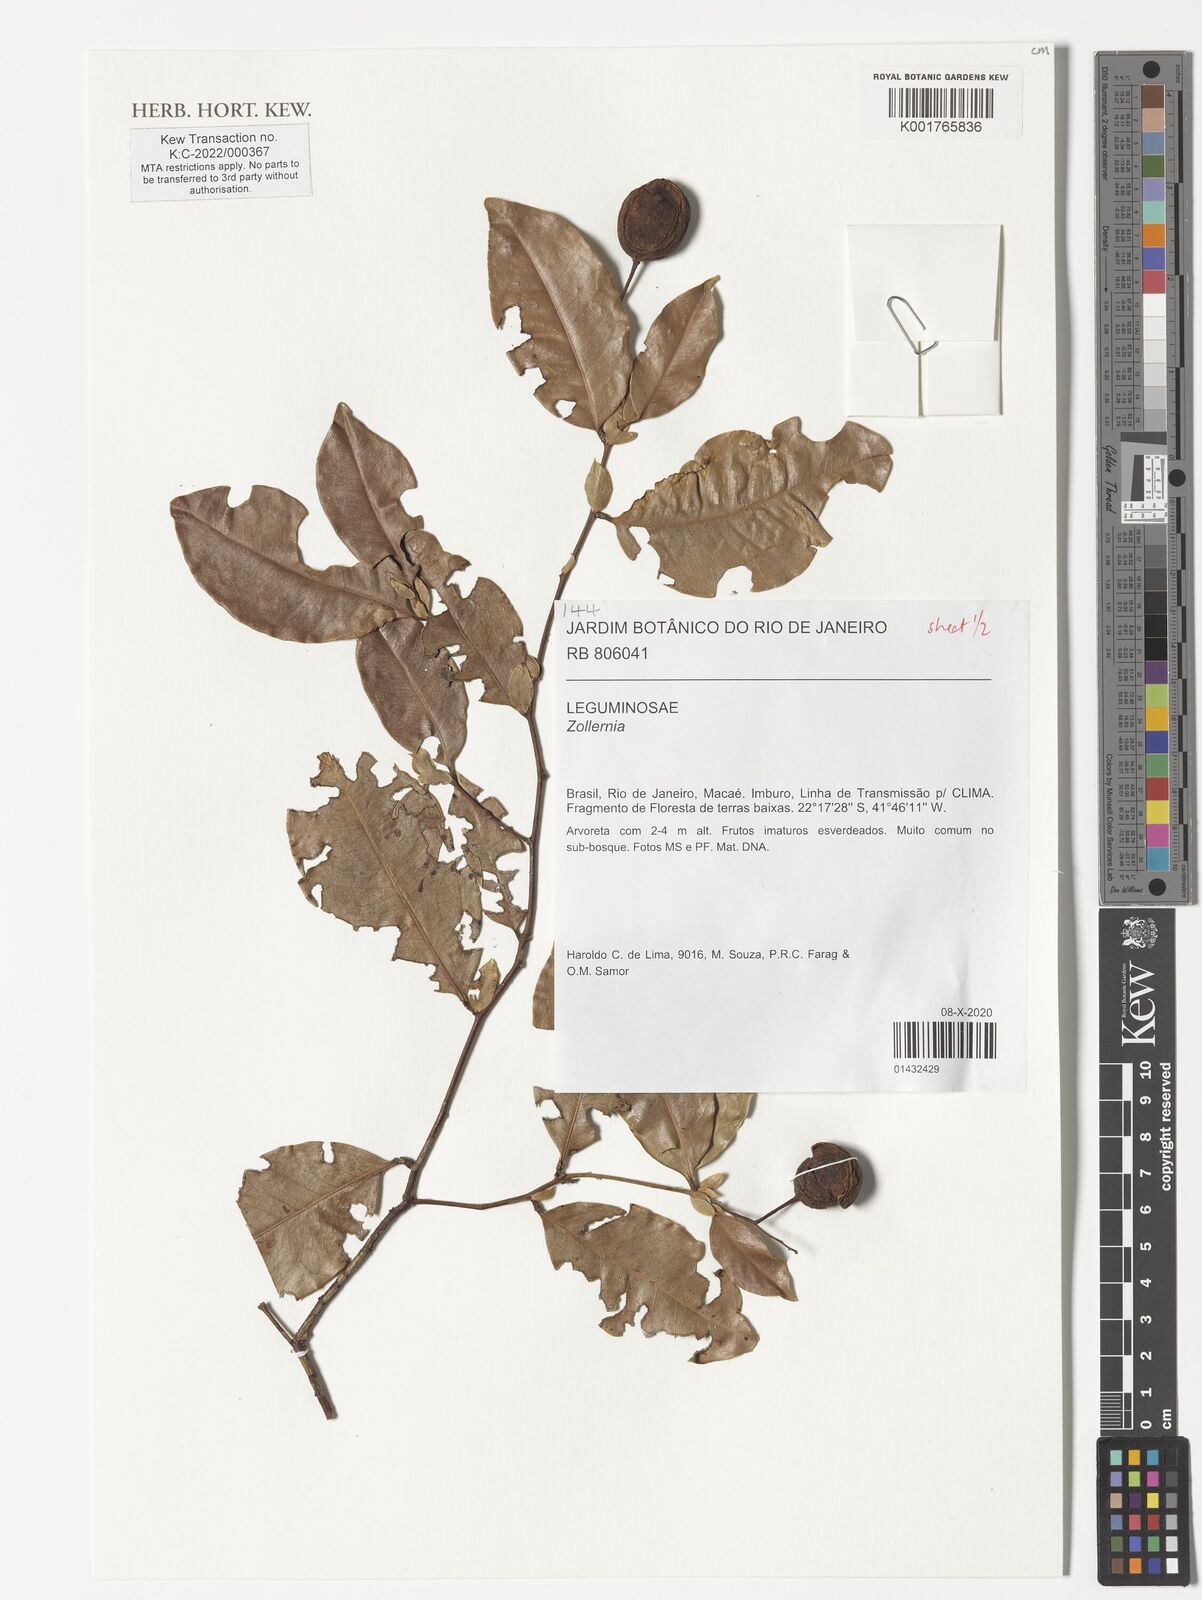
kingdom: Plantae
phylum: Tracheophyta
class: Magnoliopsida
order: Fabales
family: Fabaceae
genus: Zollernia
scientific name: Zollernia
